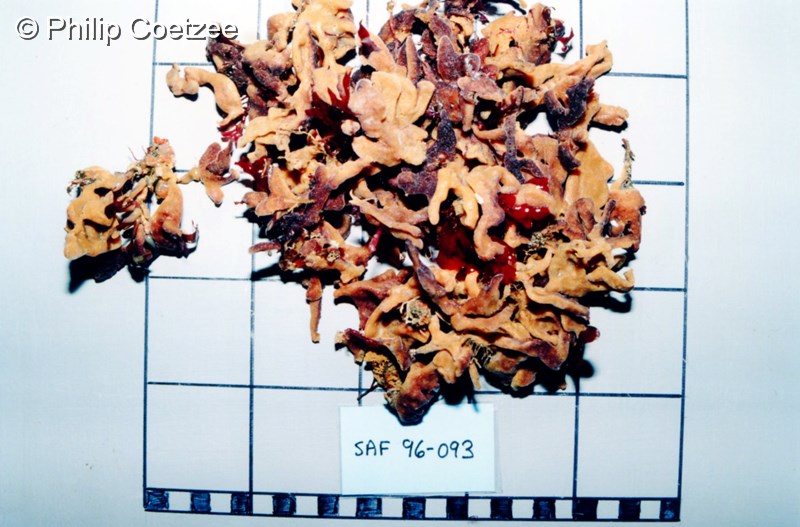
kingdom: Animalia
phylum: Porifera
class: Demospongiae
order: Axinellida
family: Axinellidae
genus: Axinella
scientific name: Axinella
